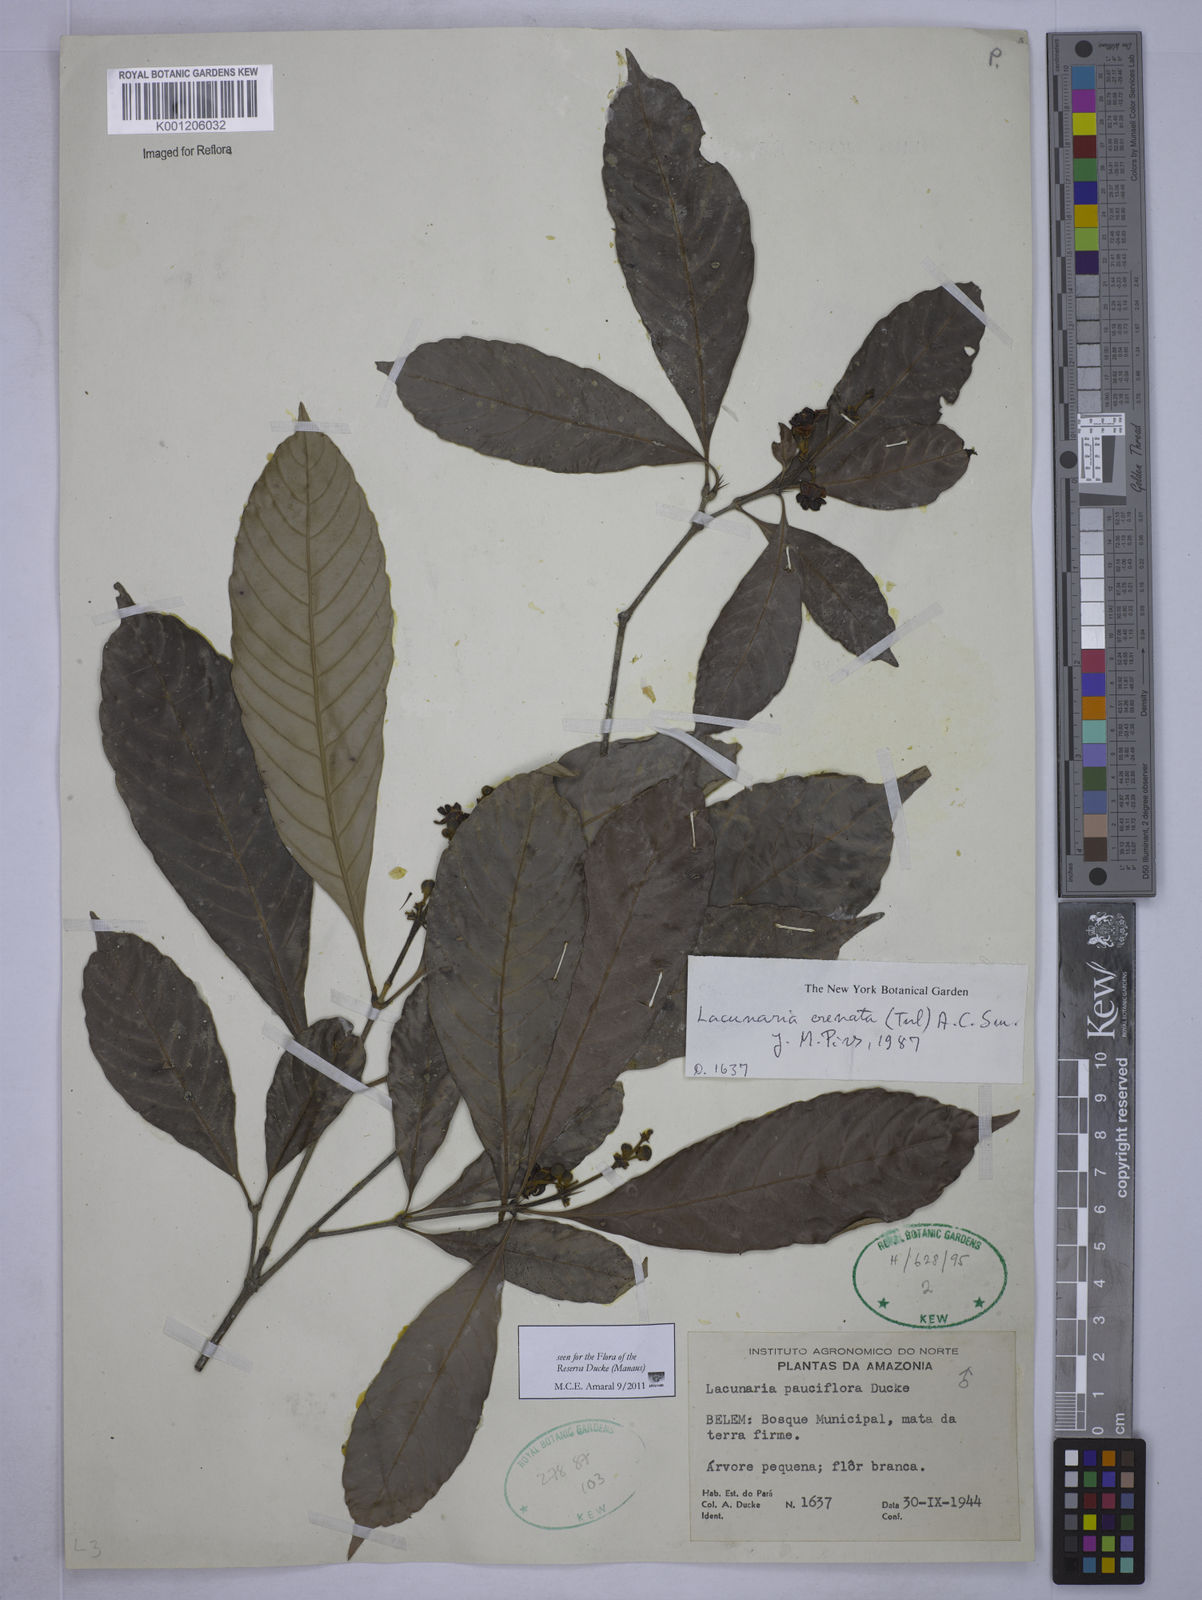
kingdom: Plantae
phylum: Tracheophyta
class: Magnoliopsida
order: Malpighiales
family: Quiinaceae
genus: Lacunaria
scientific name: Lacunaria crenata
